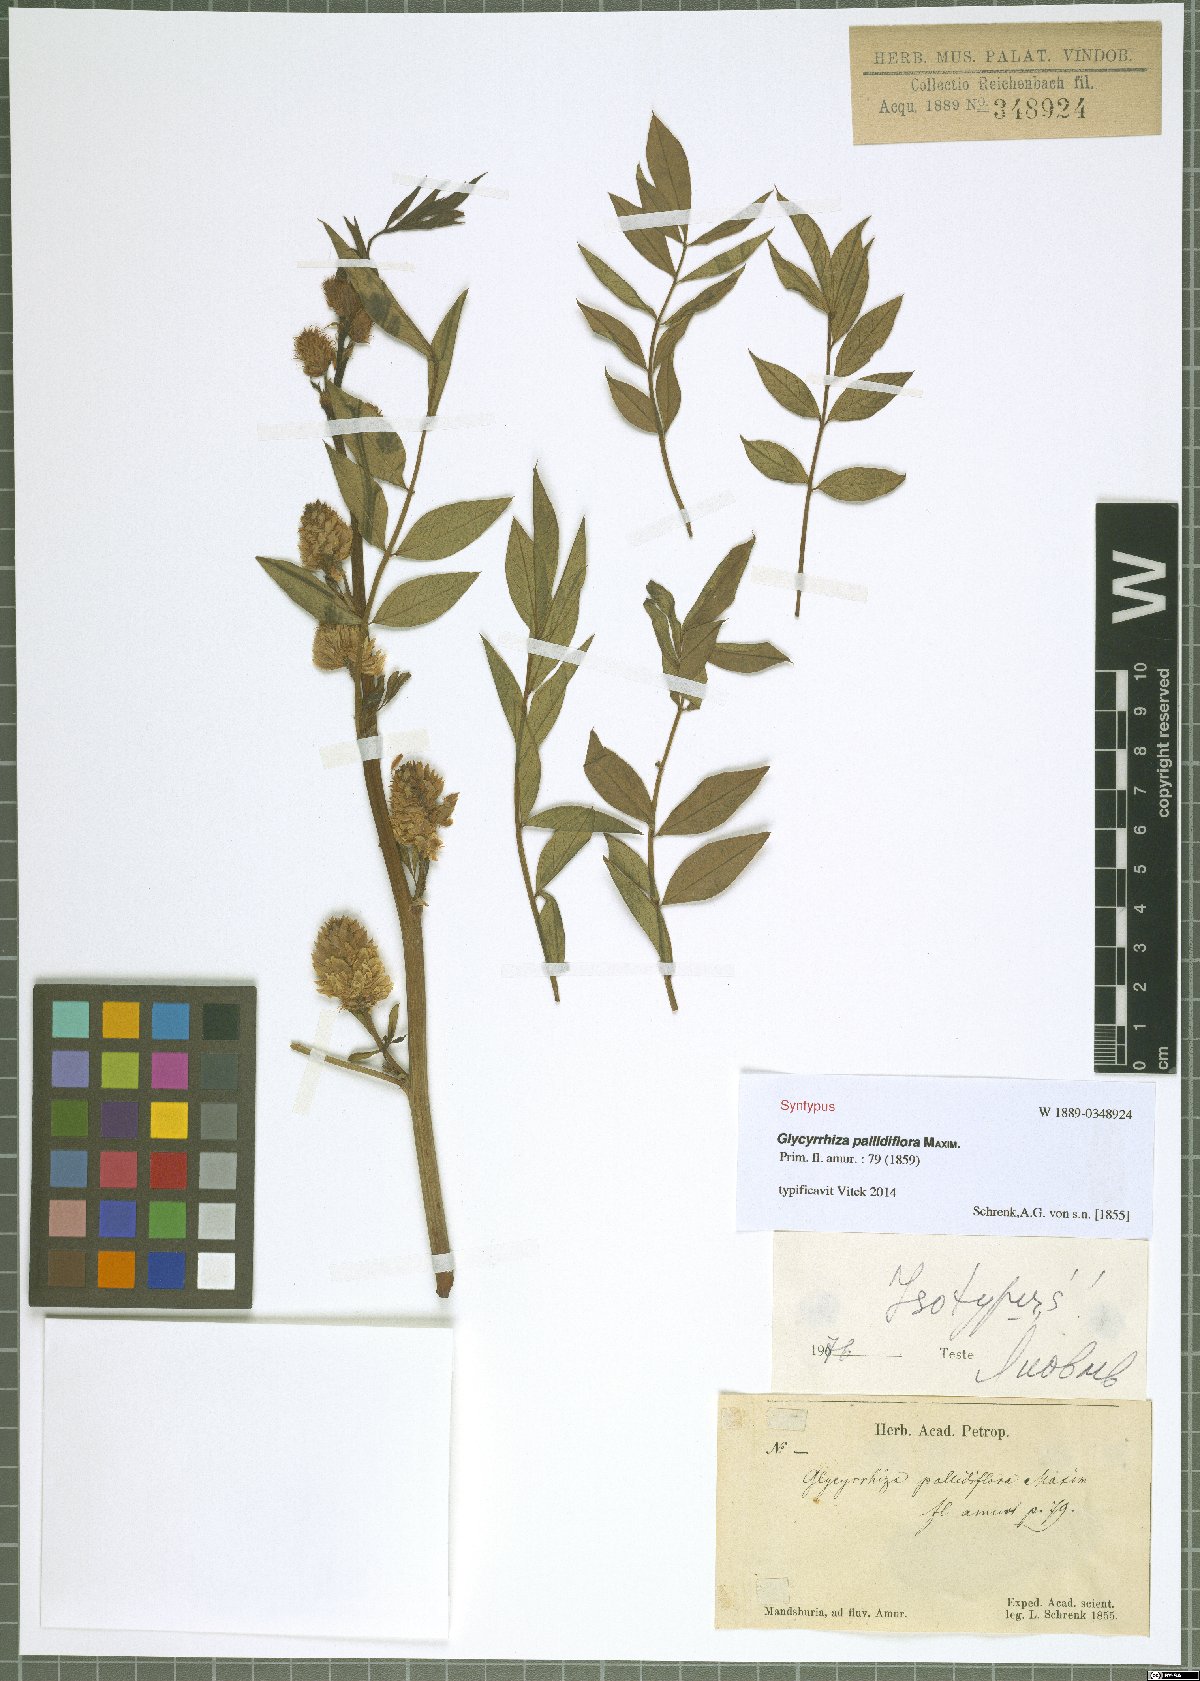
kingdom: Plantae
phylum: Tracheophyta
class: Magnoliopsida
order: Fabales
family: Fabaceae
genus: Glycyrrhiza
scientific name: Glycyrrhiza pallidiflora
